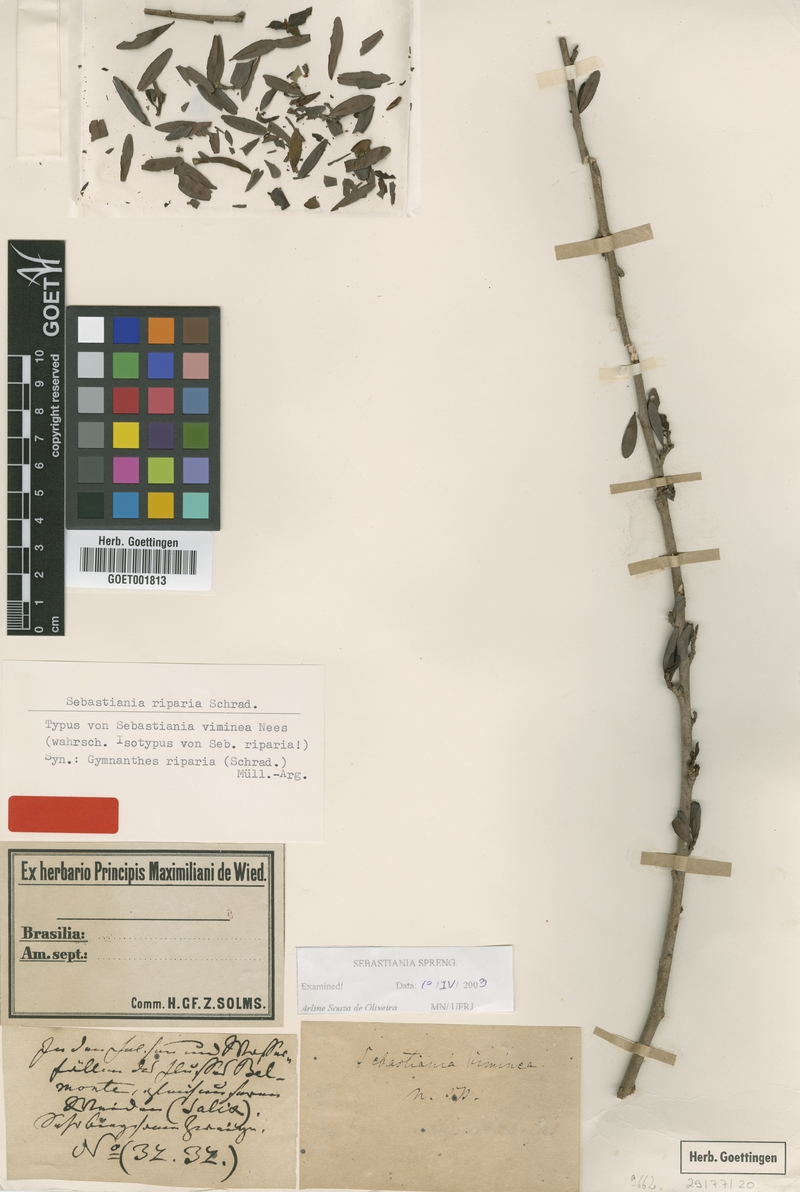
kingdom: Plantae
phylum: Tracheophyta
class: Magnoliopsida
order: Malpighiales
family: Euphorbiaceae
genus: Sebastiania
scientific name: Sebastiania riparia
